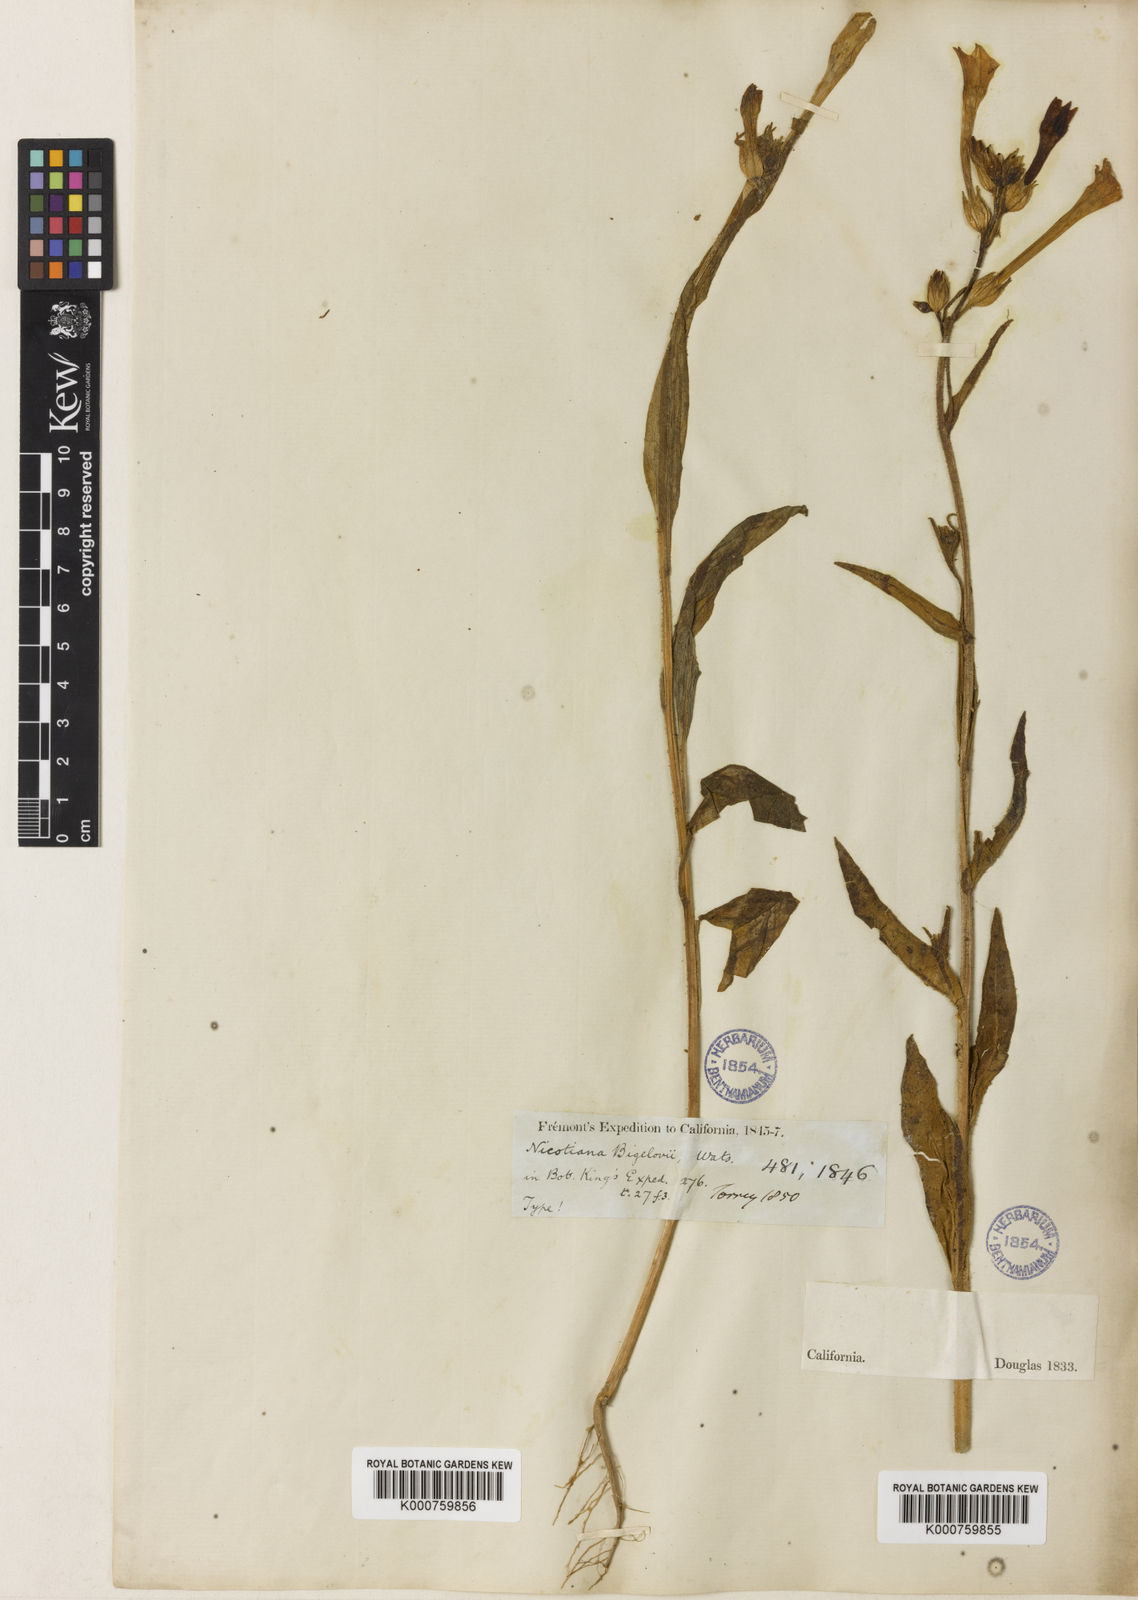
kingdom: Plantae
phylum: Tracheophyta
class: Magnoliopsida
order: Solanales
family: Solanaceae
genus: Nicotiana
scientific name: Nicotiana quadrivalvis
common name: Indian tobacco
